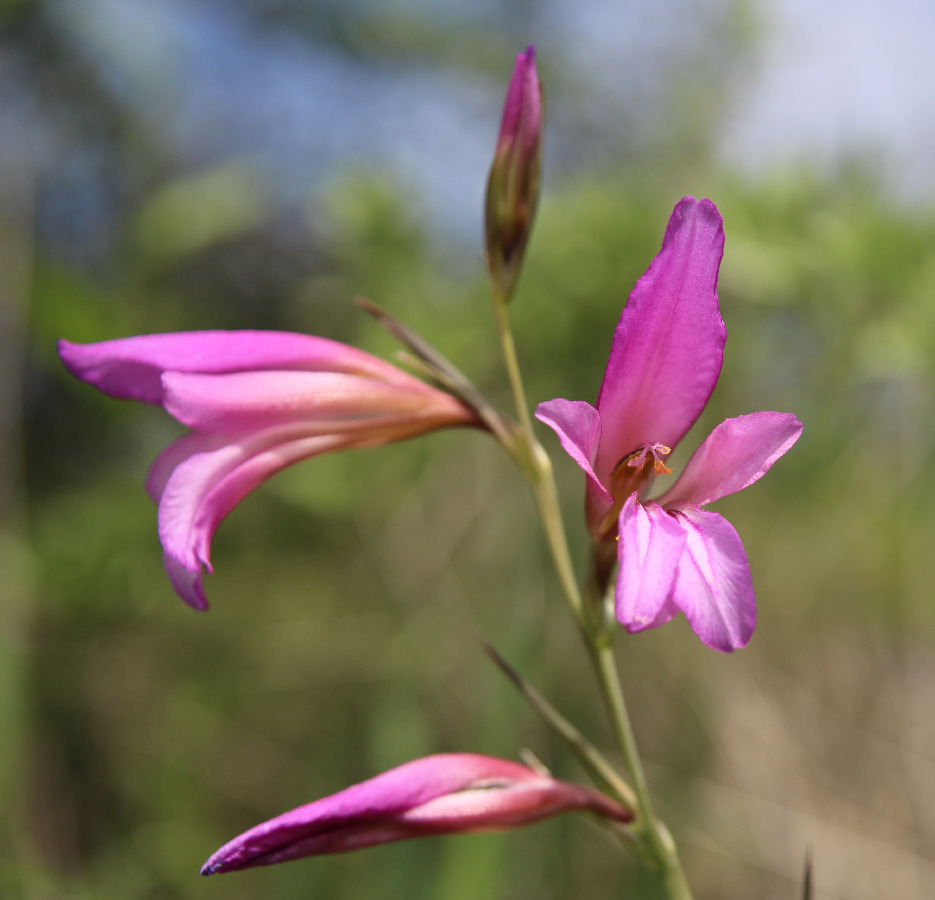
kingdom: Plantae
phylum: Tracheophyta
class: Liliopsida
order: Asparagales
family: Iridaceae
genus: Gladiolus
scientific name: Gladiolus italicus
